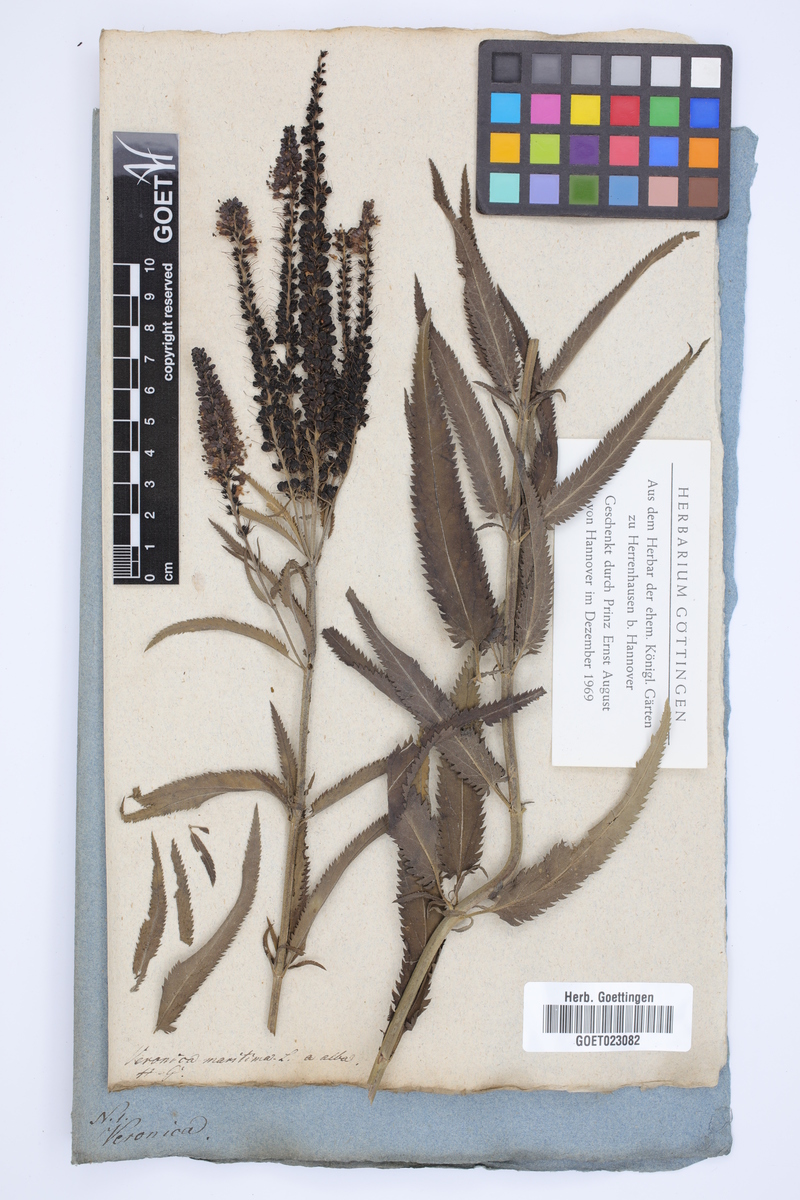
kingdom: Plantae
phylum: Tracheophyta
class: Magnoliopsida
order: Lamiales
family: Plantaginaceae
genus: Veronica
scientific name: Veronica longifolia
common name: Garden speedwell
